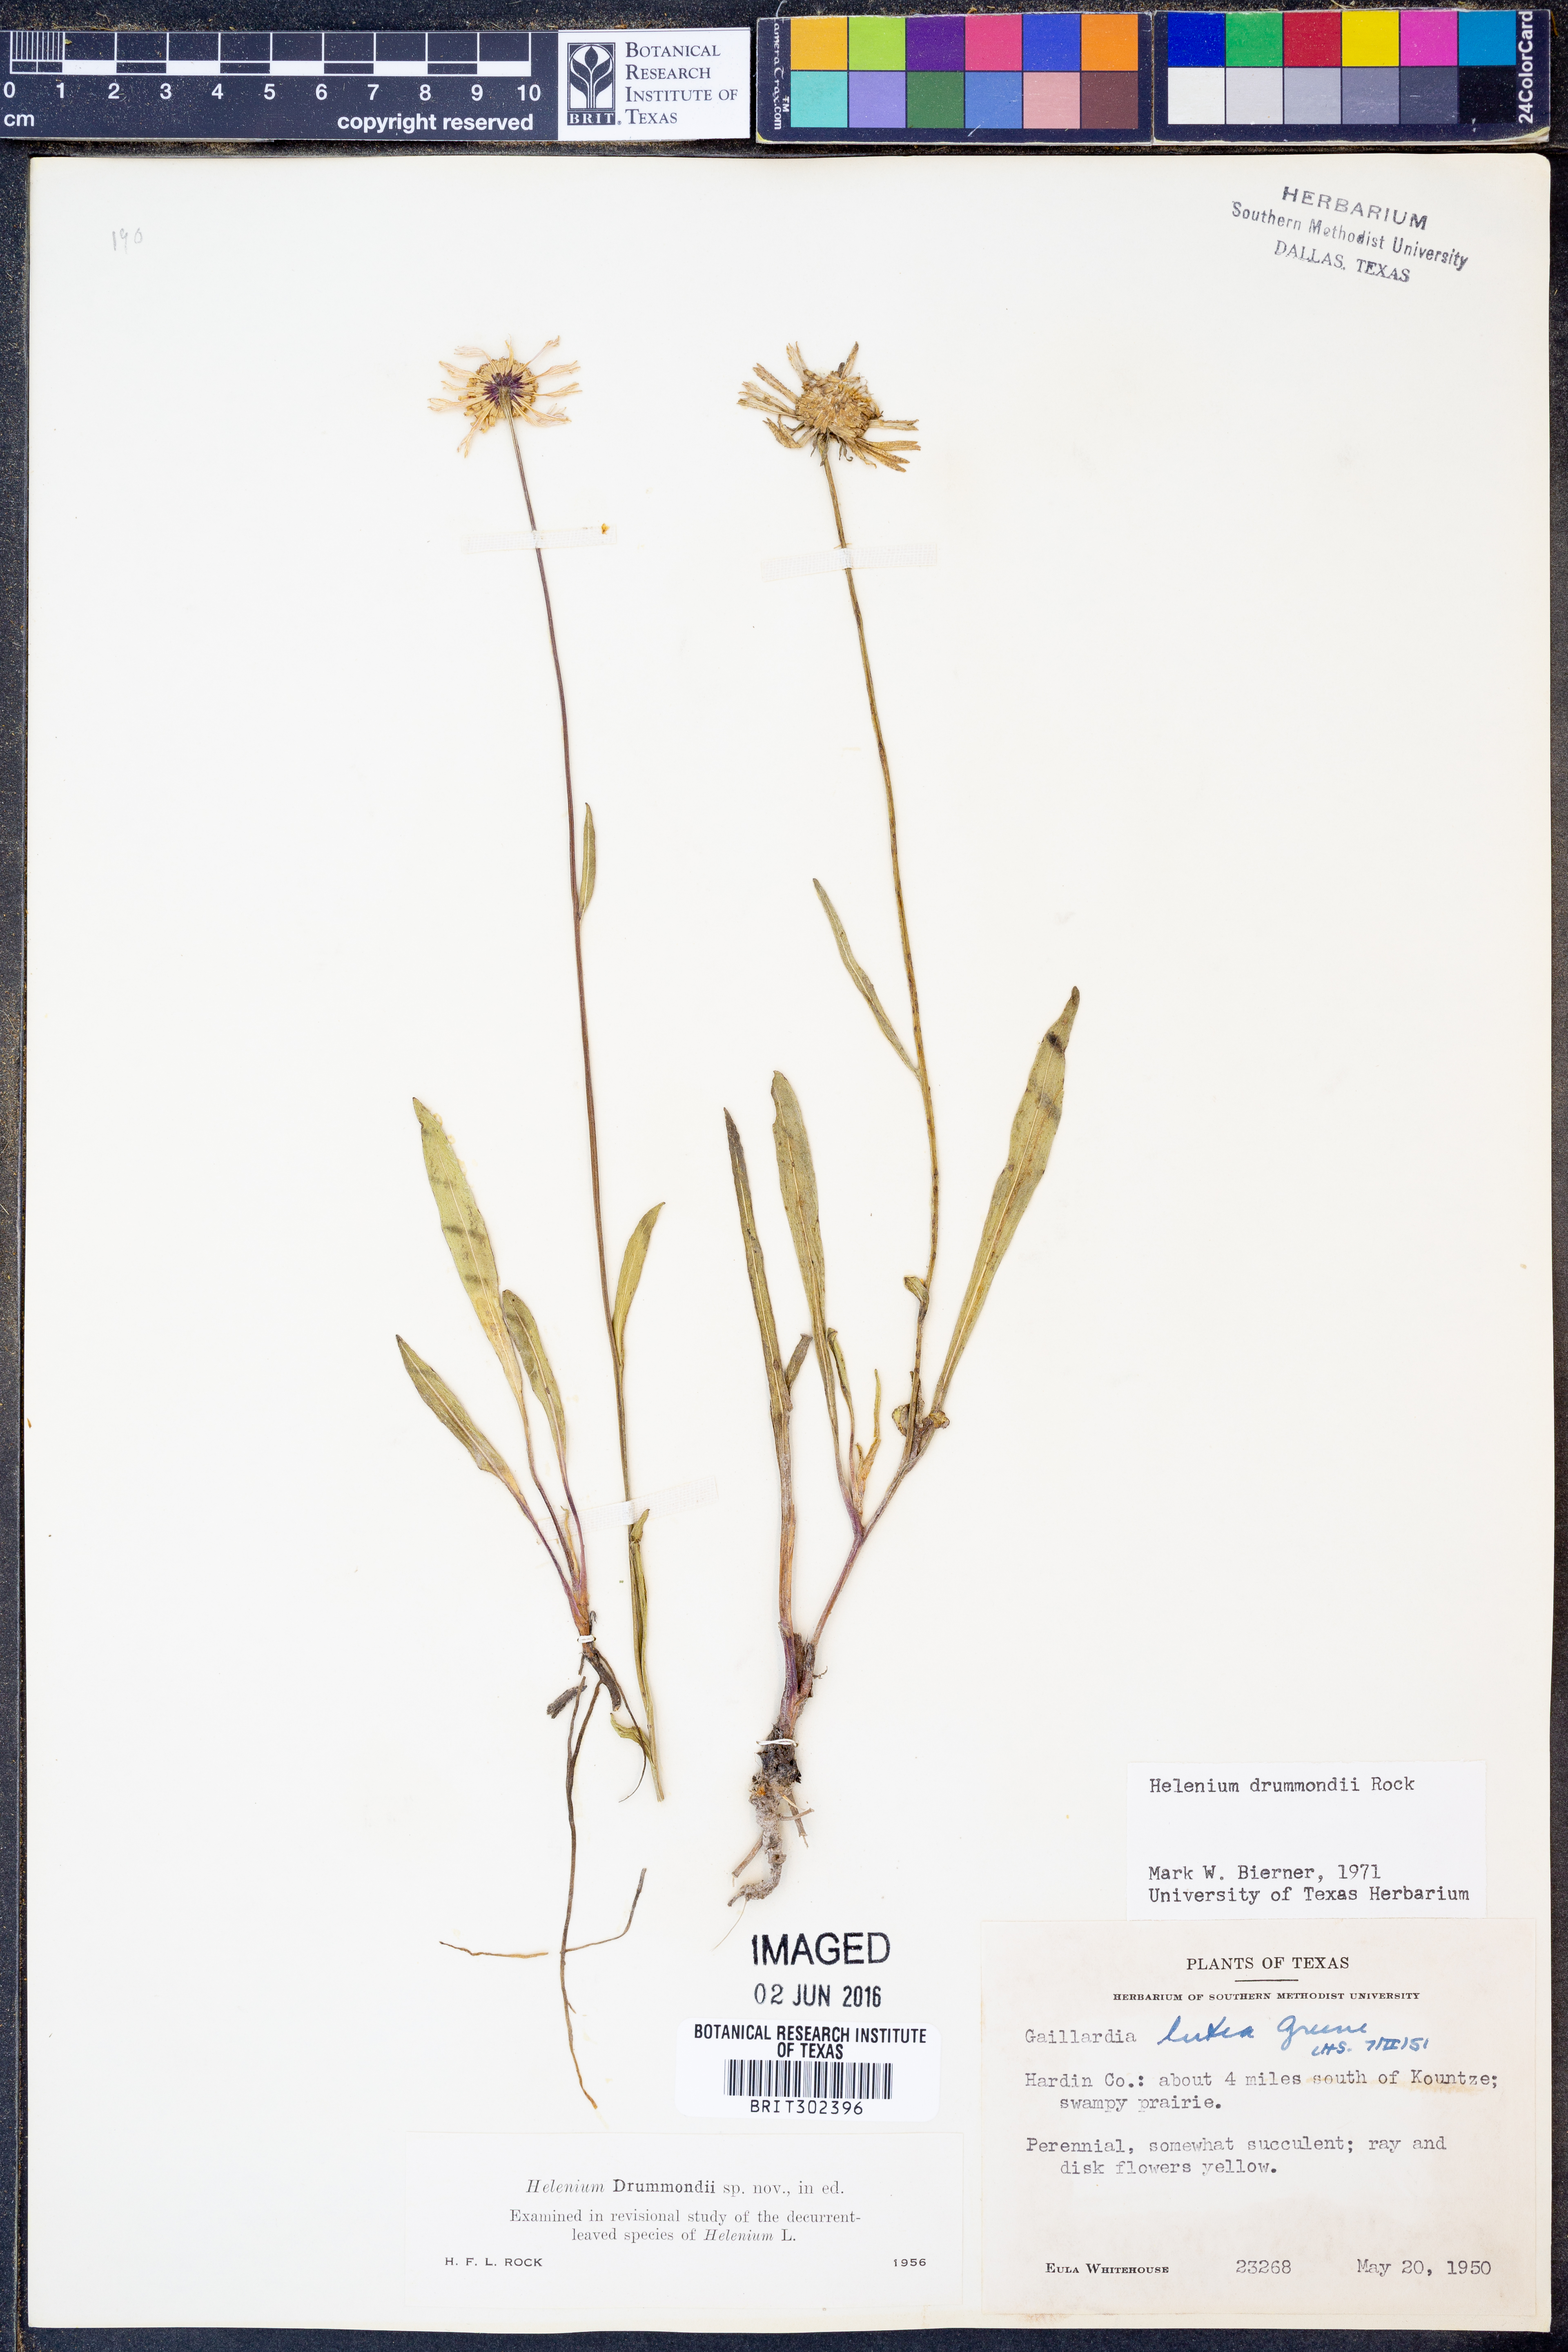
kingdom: Plantae
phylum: Tracheophyta
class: Magnoliopsida
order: Asterales
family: Asteraceae
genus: Helenium
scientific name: Helenium drummondii
